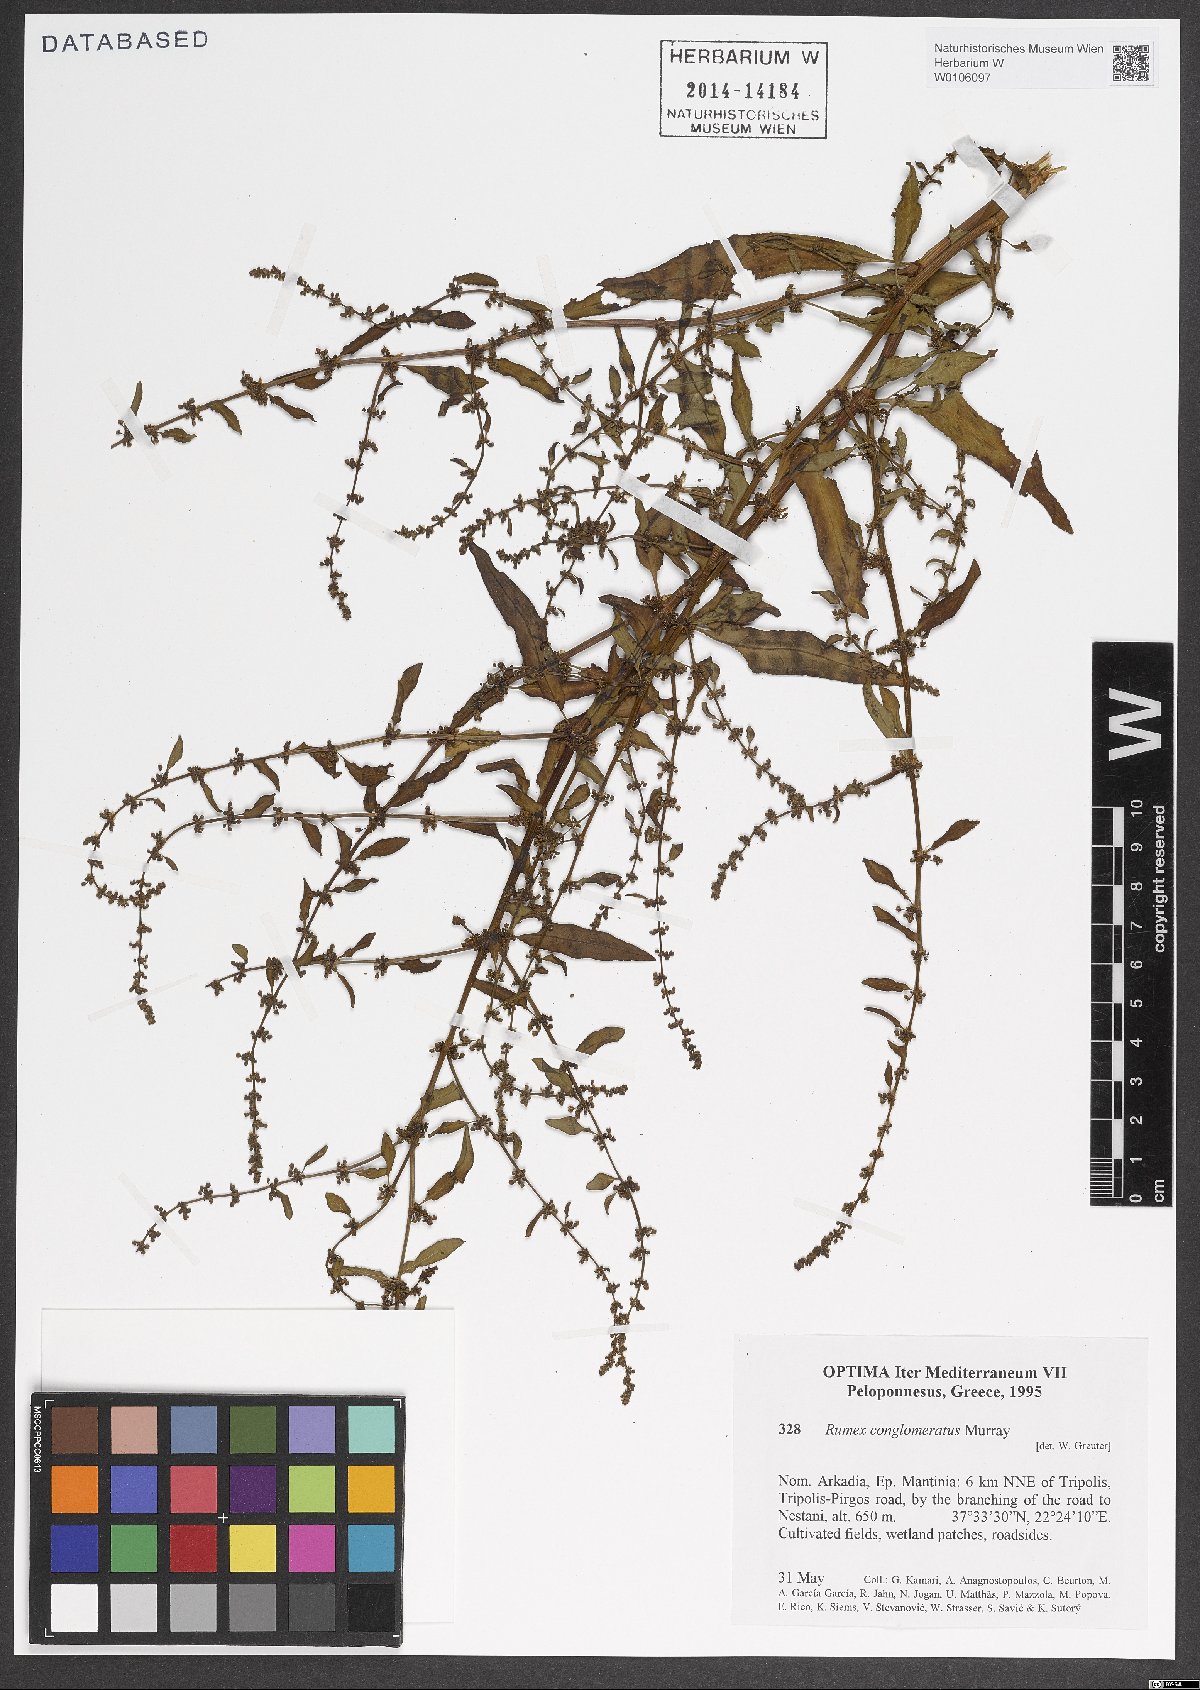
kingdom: Plantae
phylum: Tracheophyta
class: Magnoliopsida
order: Caryophyllales
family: Polygonaceae
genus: Rumex
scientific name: Rumex conglomeratus
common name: Clustered dock
